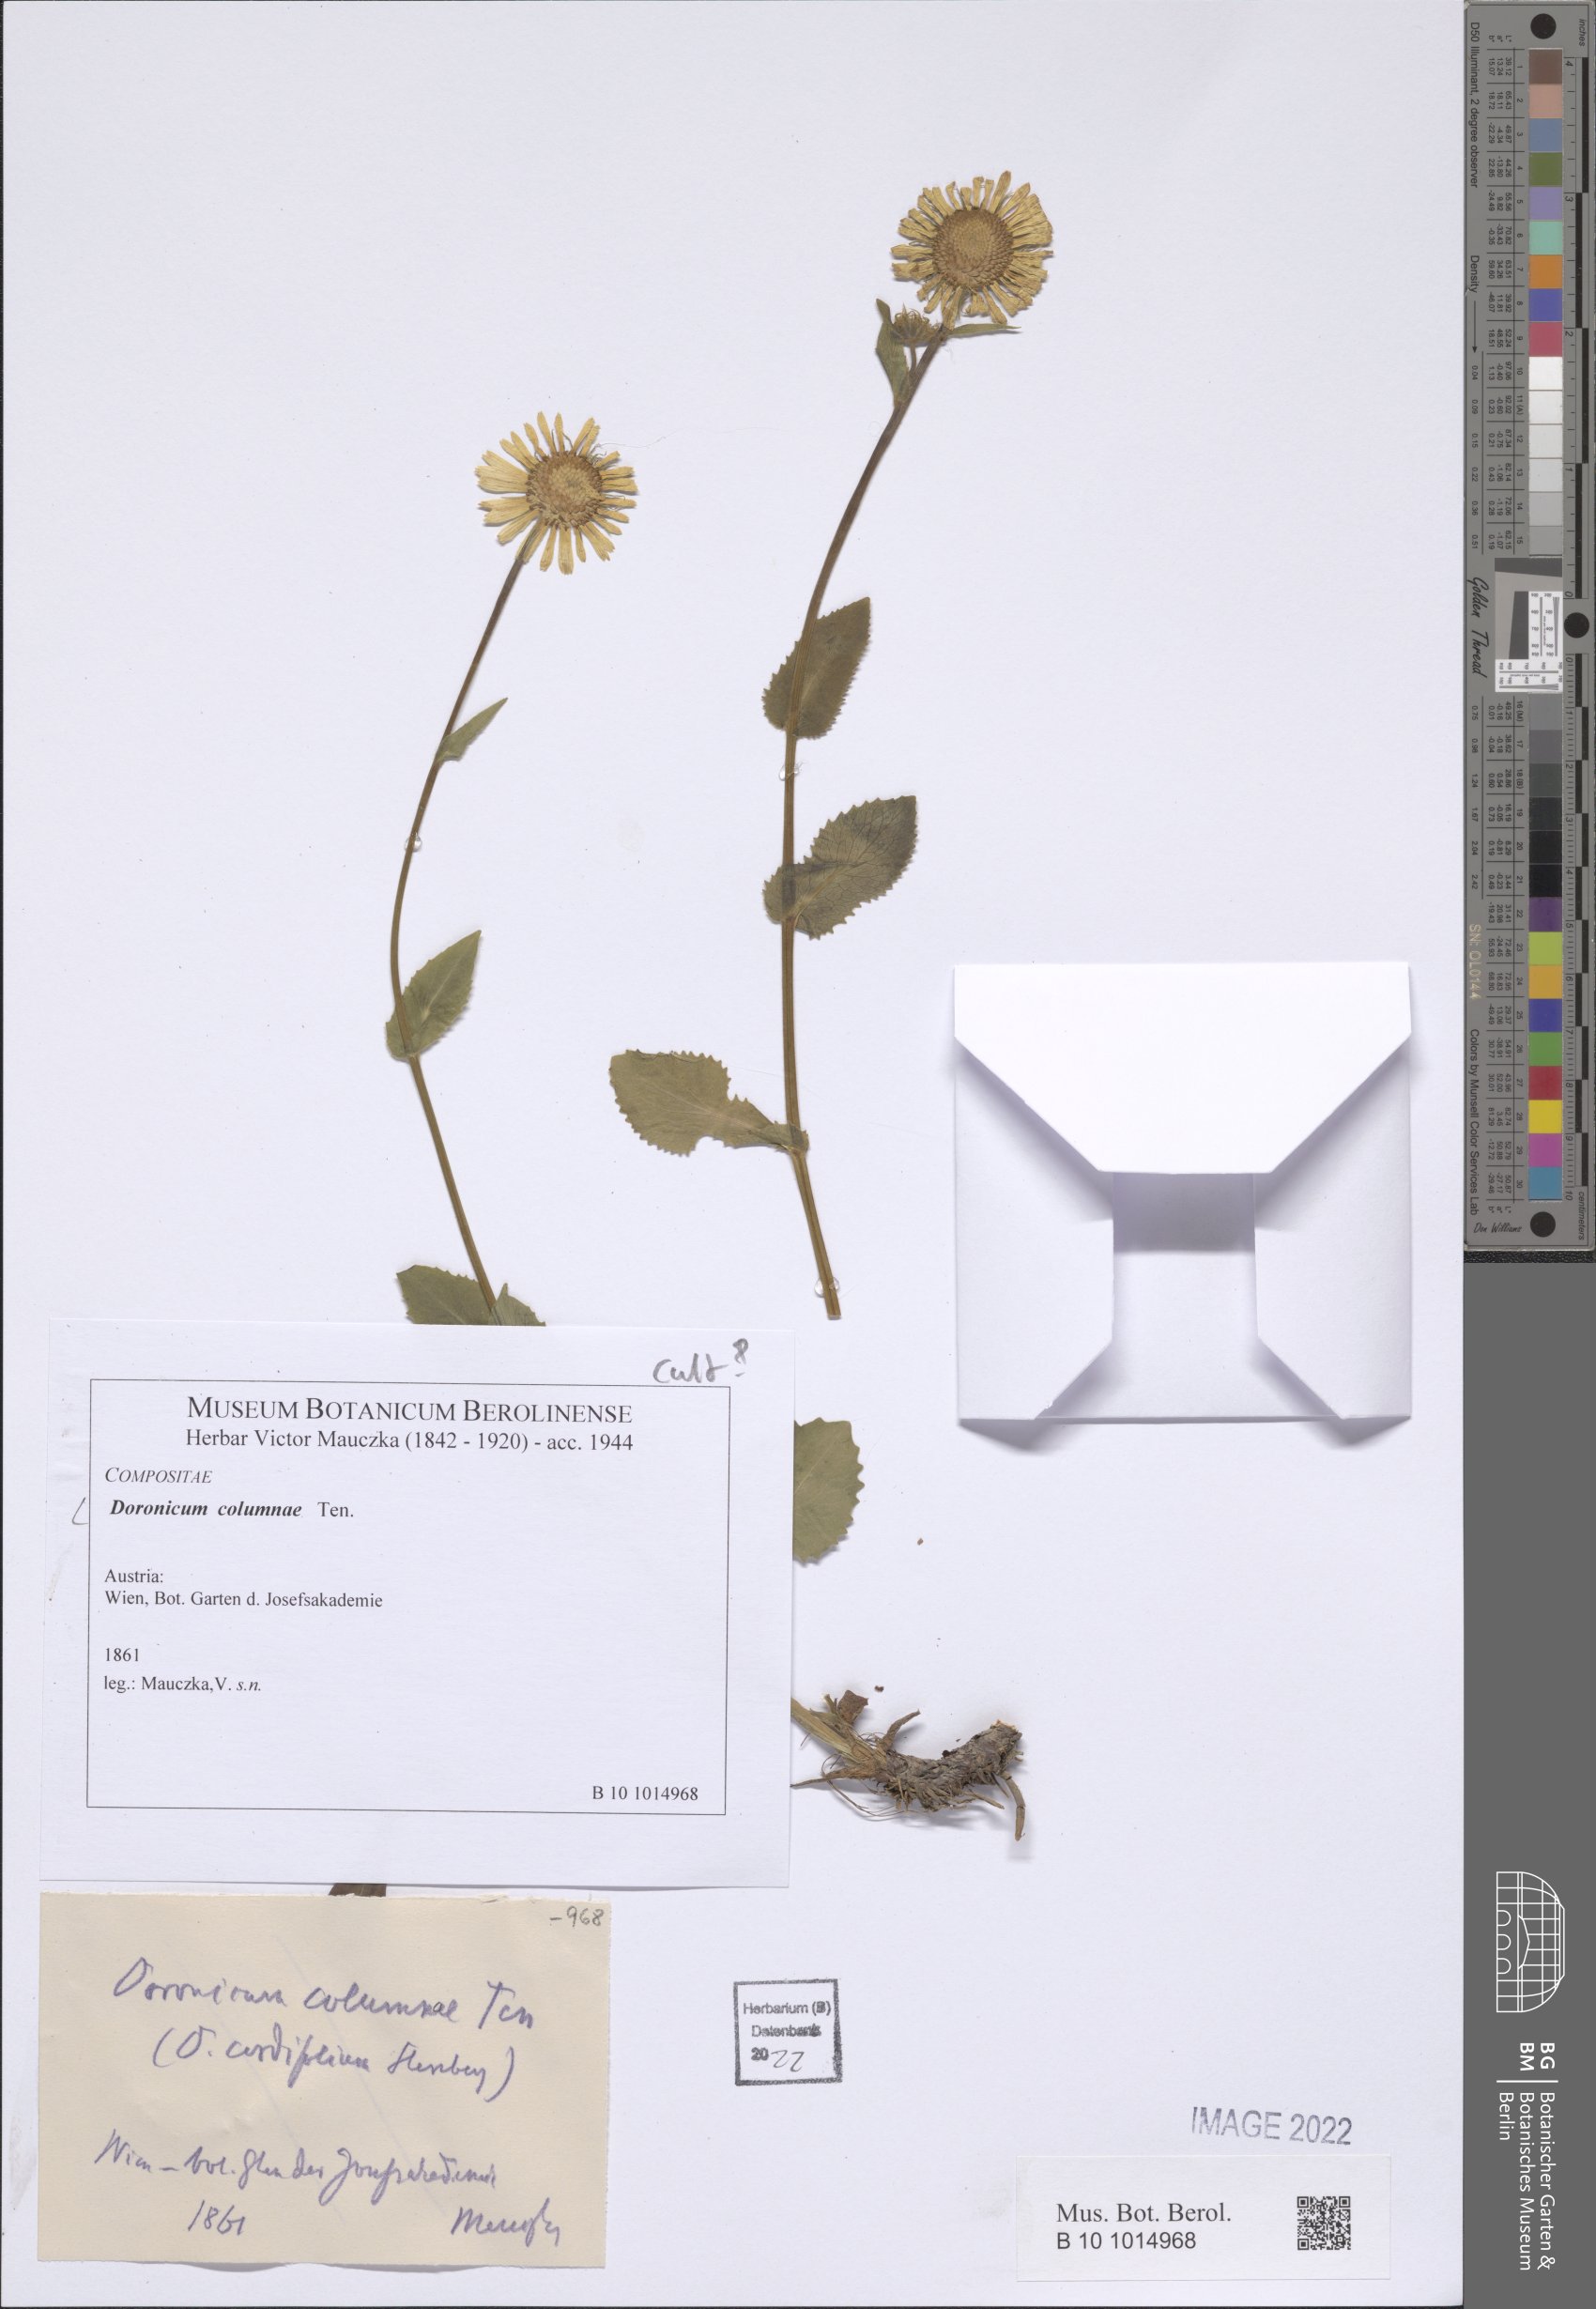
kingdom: Plantae
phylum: Tracheophyta
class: Magnoliopsida
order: Asterales
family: Asteraceae
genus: Doronicum
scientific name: Doronicum columnae
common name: Eastern leopard's-bane
